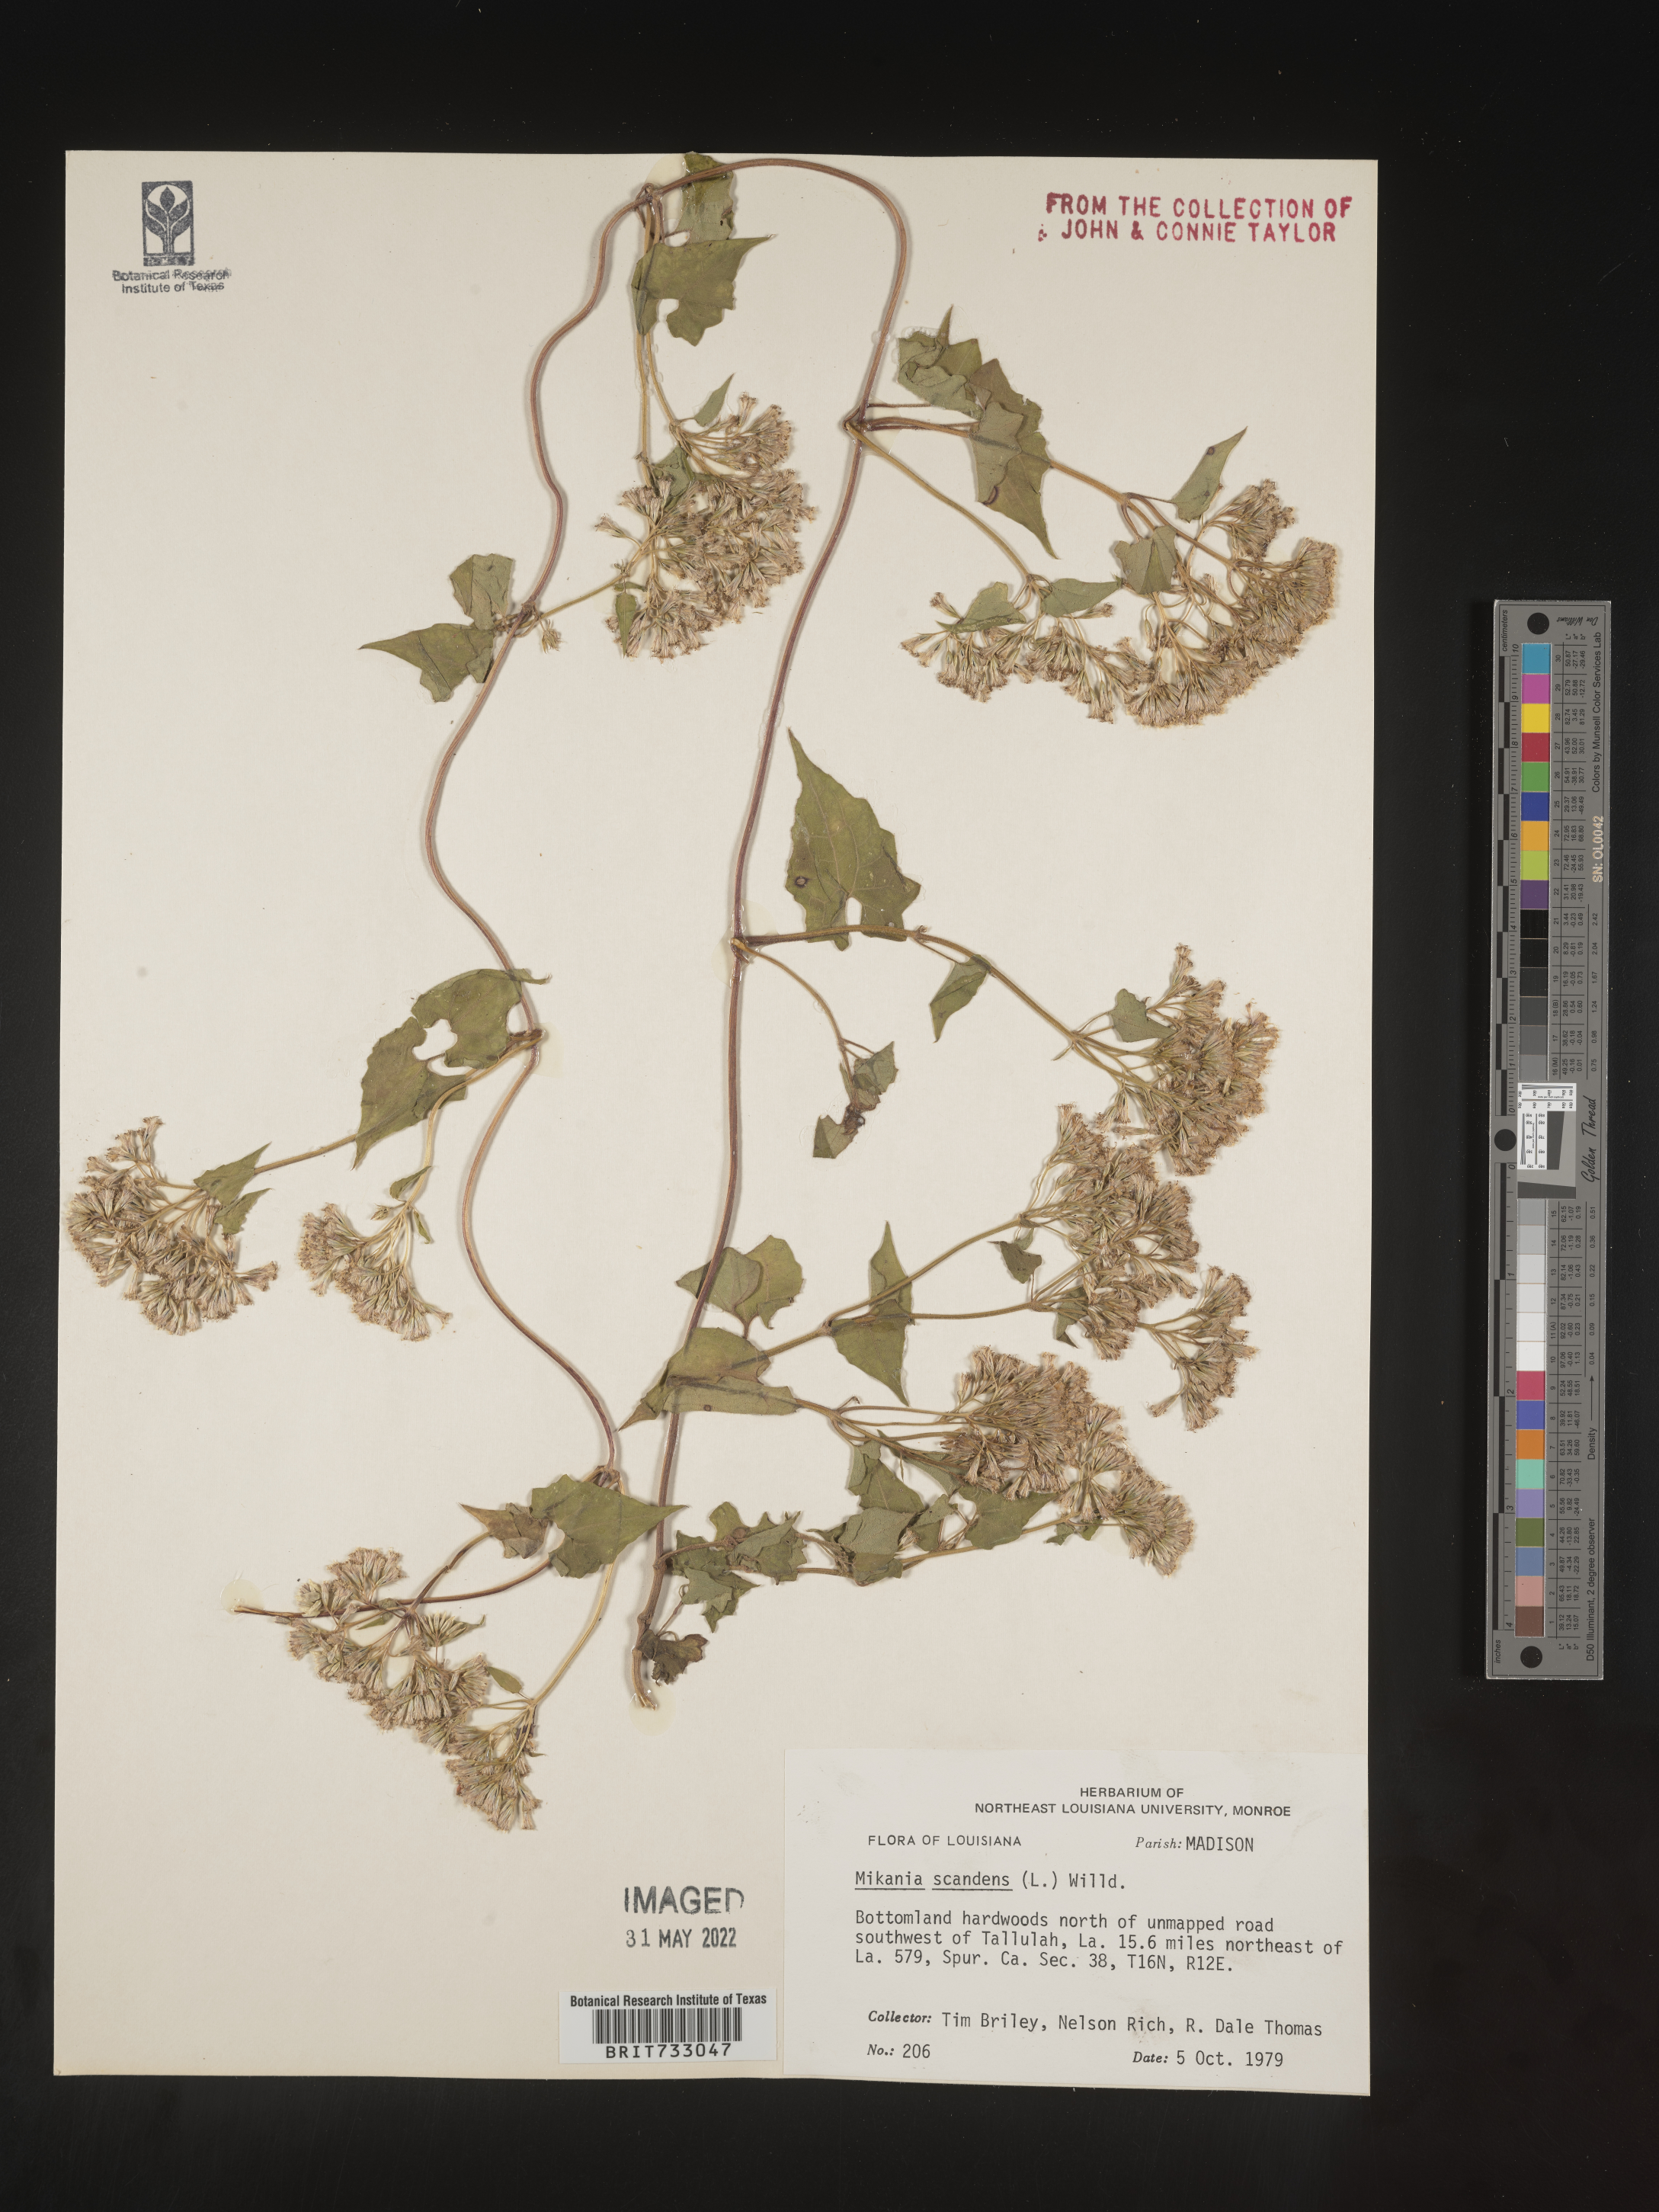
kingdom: Plantae
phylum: Tracheophyta
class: Magnoliopsida
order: Asterales
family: Asteraceae
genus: Mikania
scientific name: Mikania scandens
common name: Climbing hempvine
